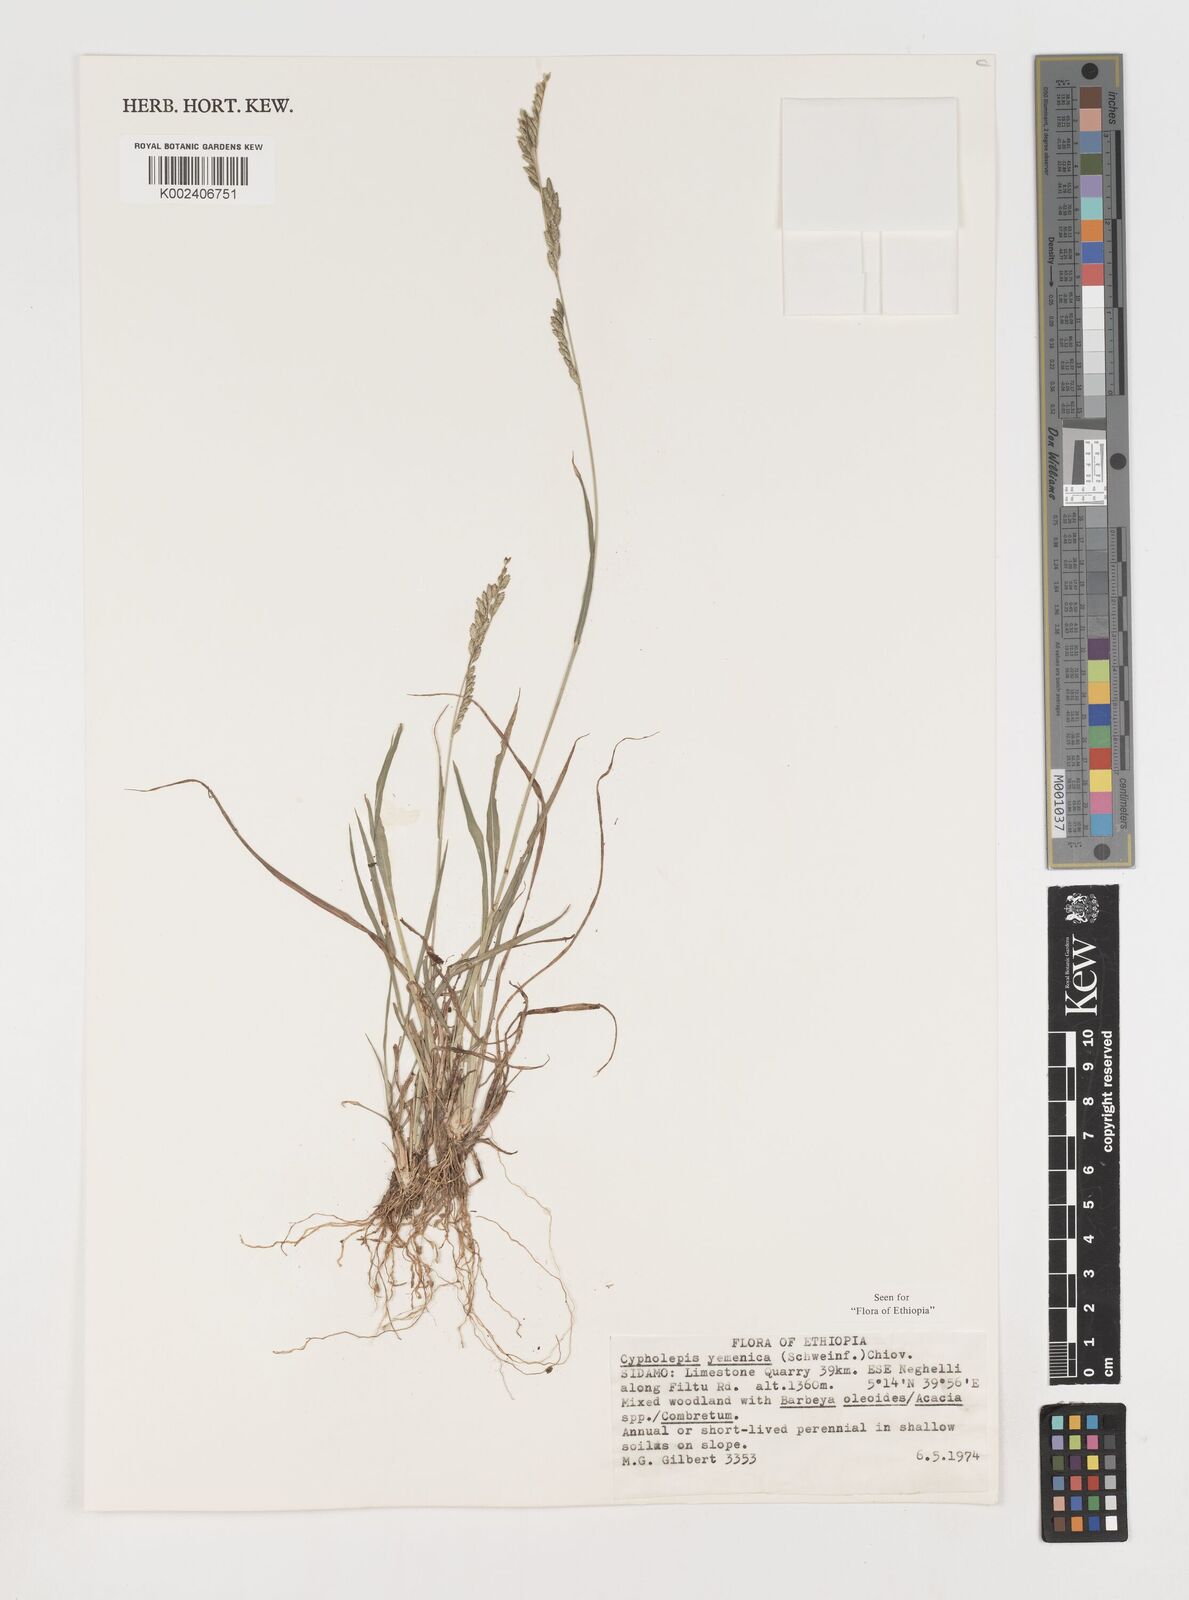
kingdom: Plantae
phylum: Tracheophyta
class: Liliopsida
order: Poales
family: Poaceae
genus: Disakisperma
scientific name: Disakisperma yemenicum
